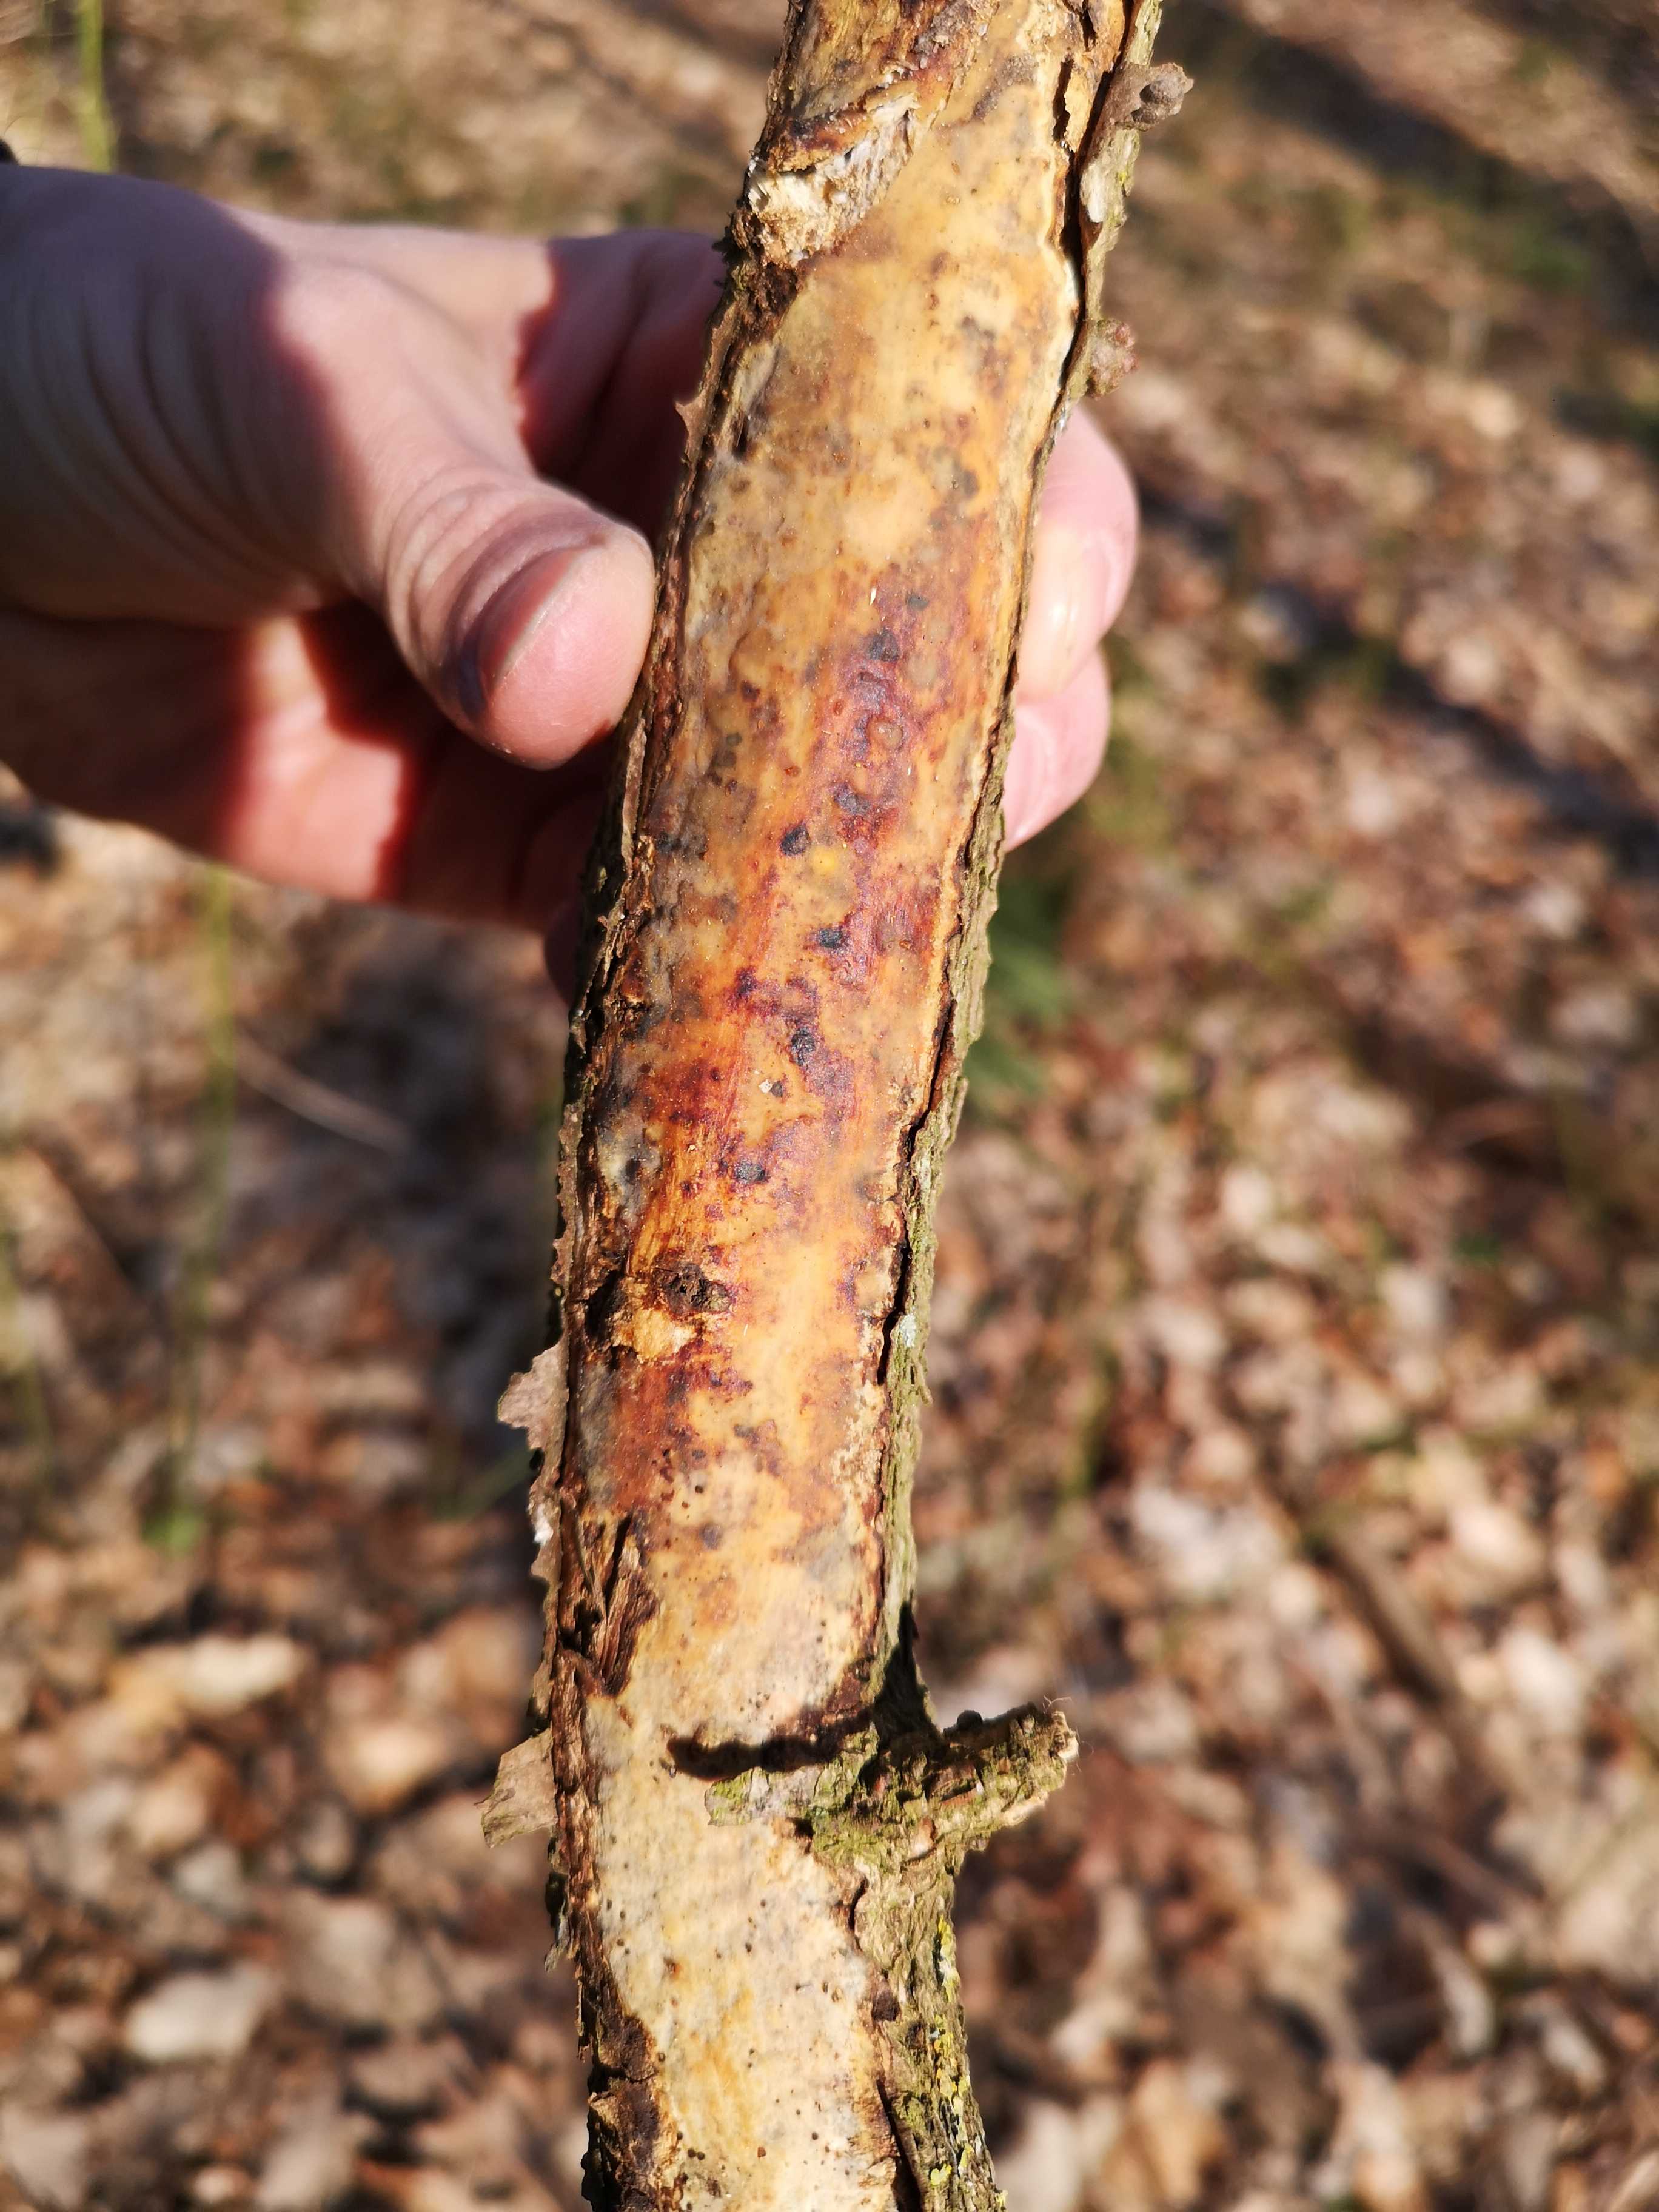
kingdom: Fungi
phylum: Basidiomycota
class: Agaricomycetes
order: Corticiales
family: Vuilleminiaceae
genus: Vuilleminia
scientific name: Vuilleminia comedens
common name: almindelig barksprænger
